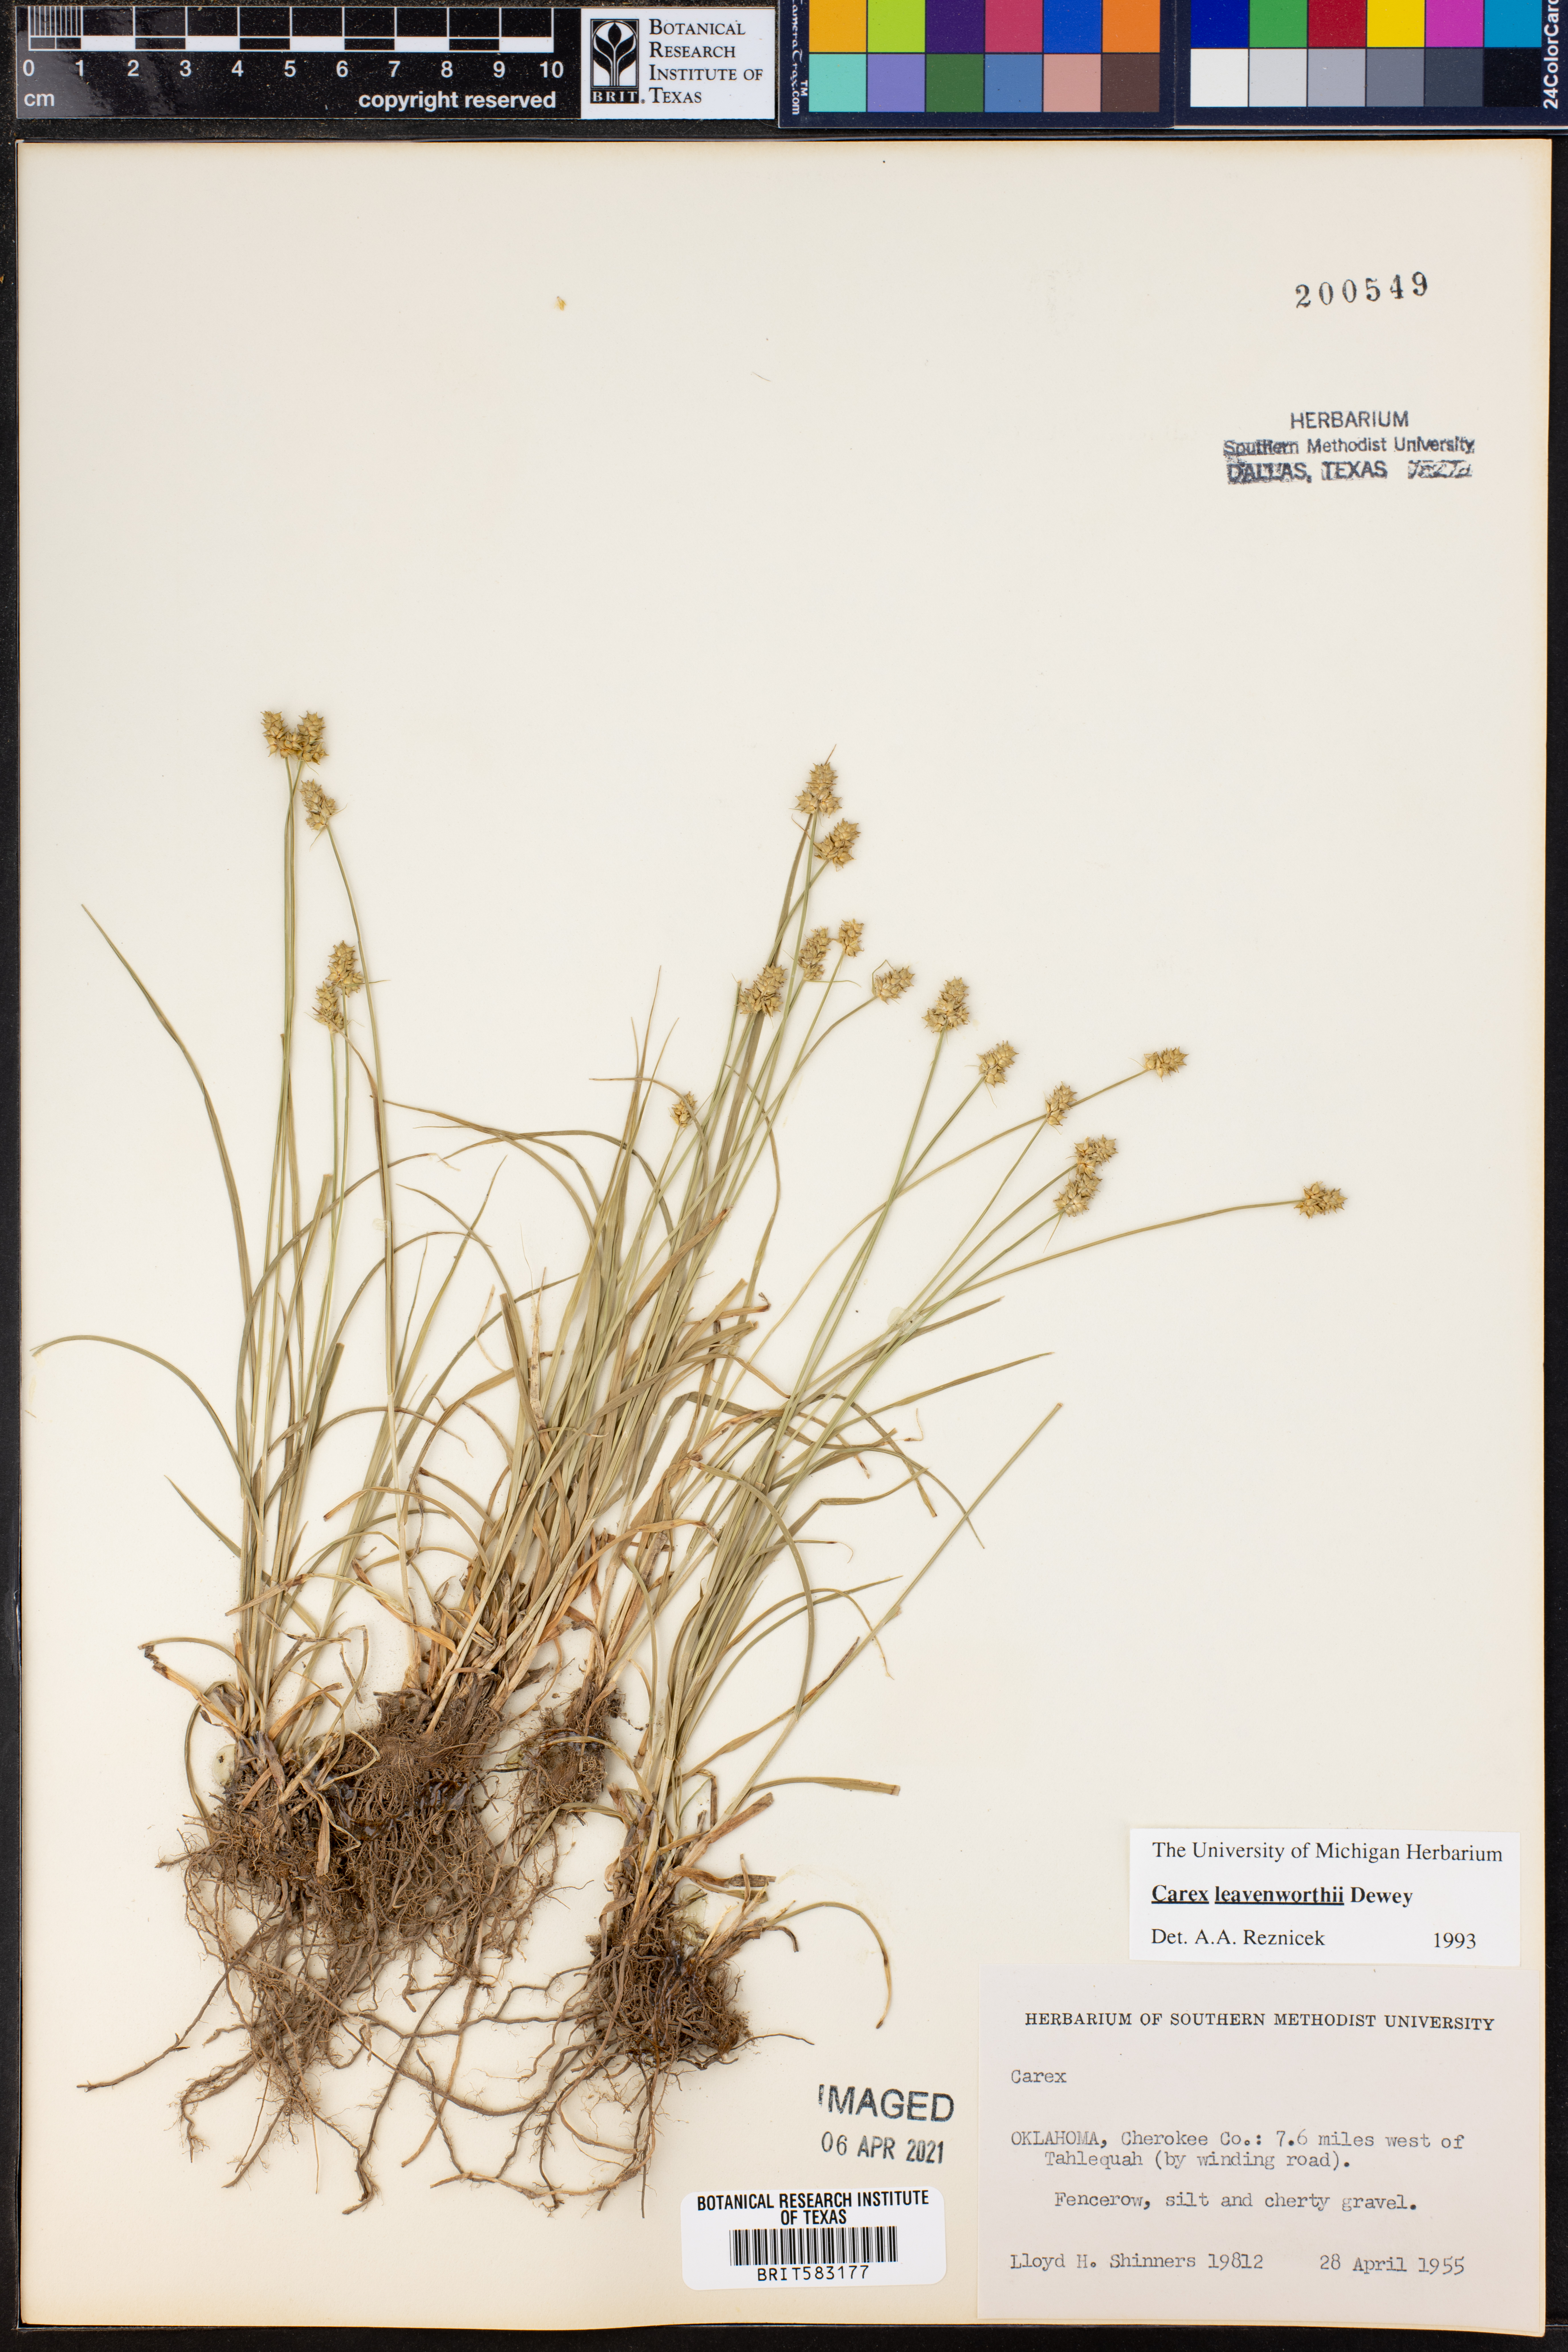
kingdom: Plantae
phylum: Tracheophyta
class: Liliopsida
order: Poales
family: Cyperaceae
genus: Carex
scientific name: Carex leavenworthii
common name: Leavenworth's bracted sedge
